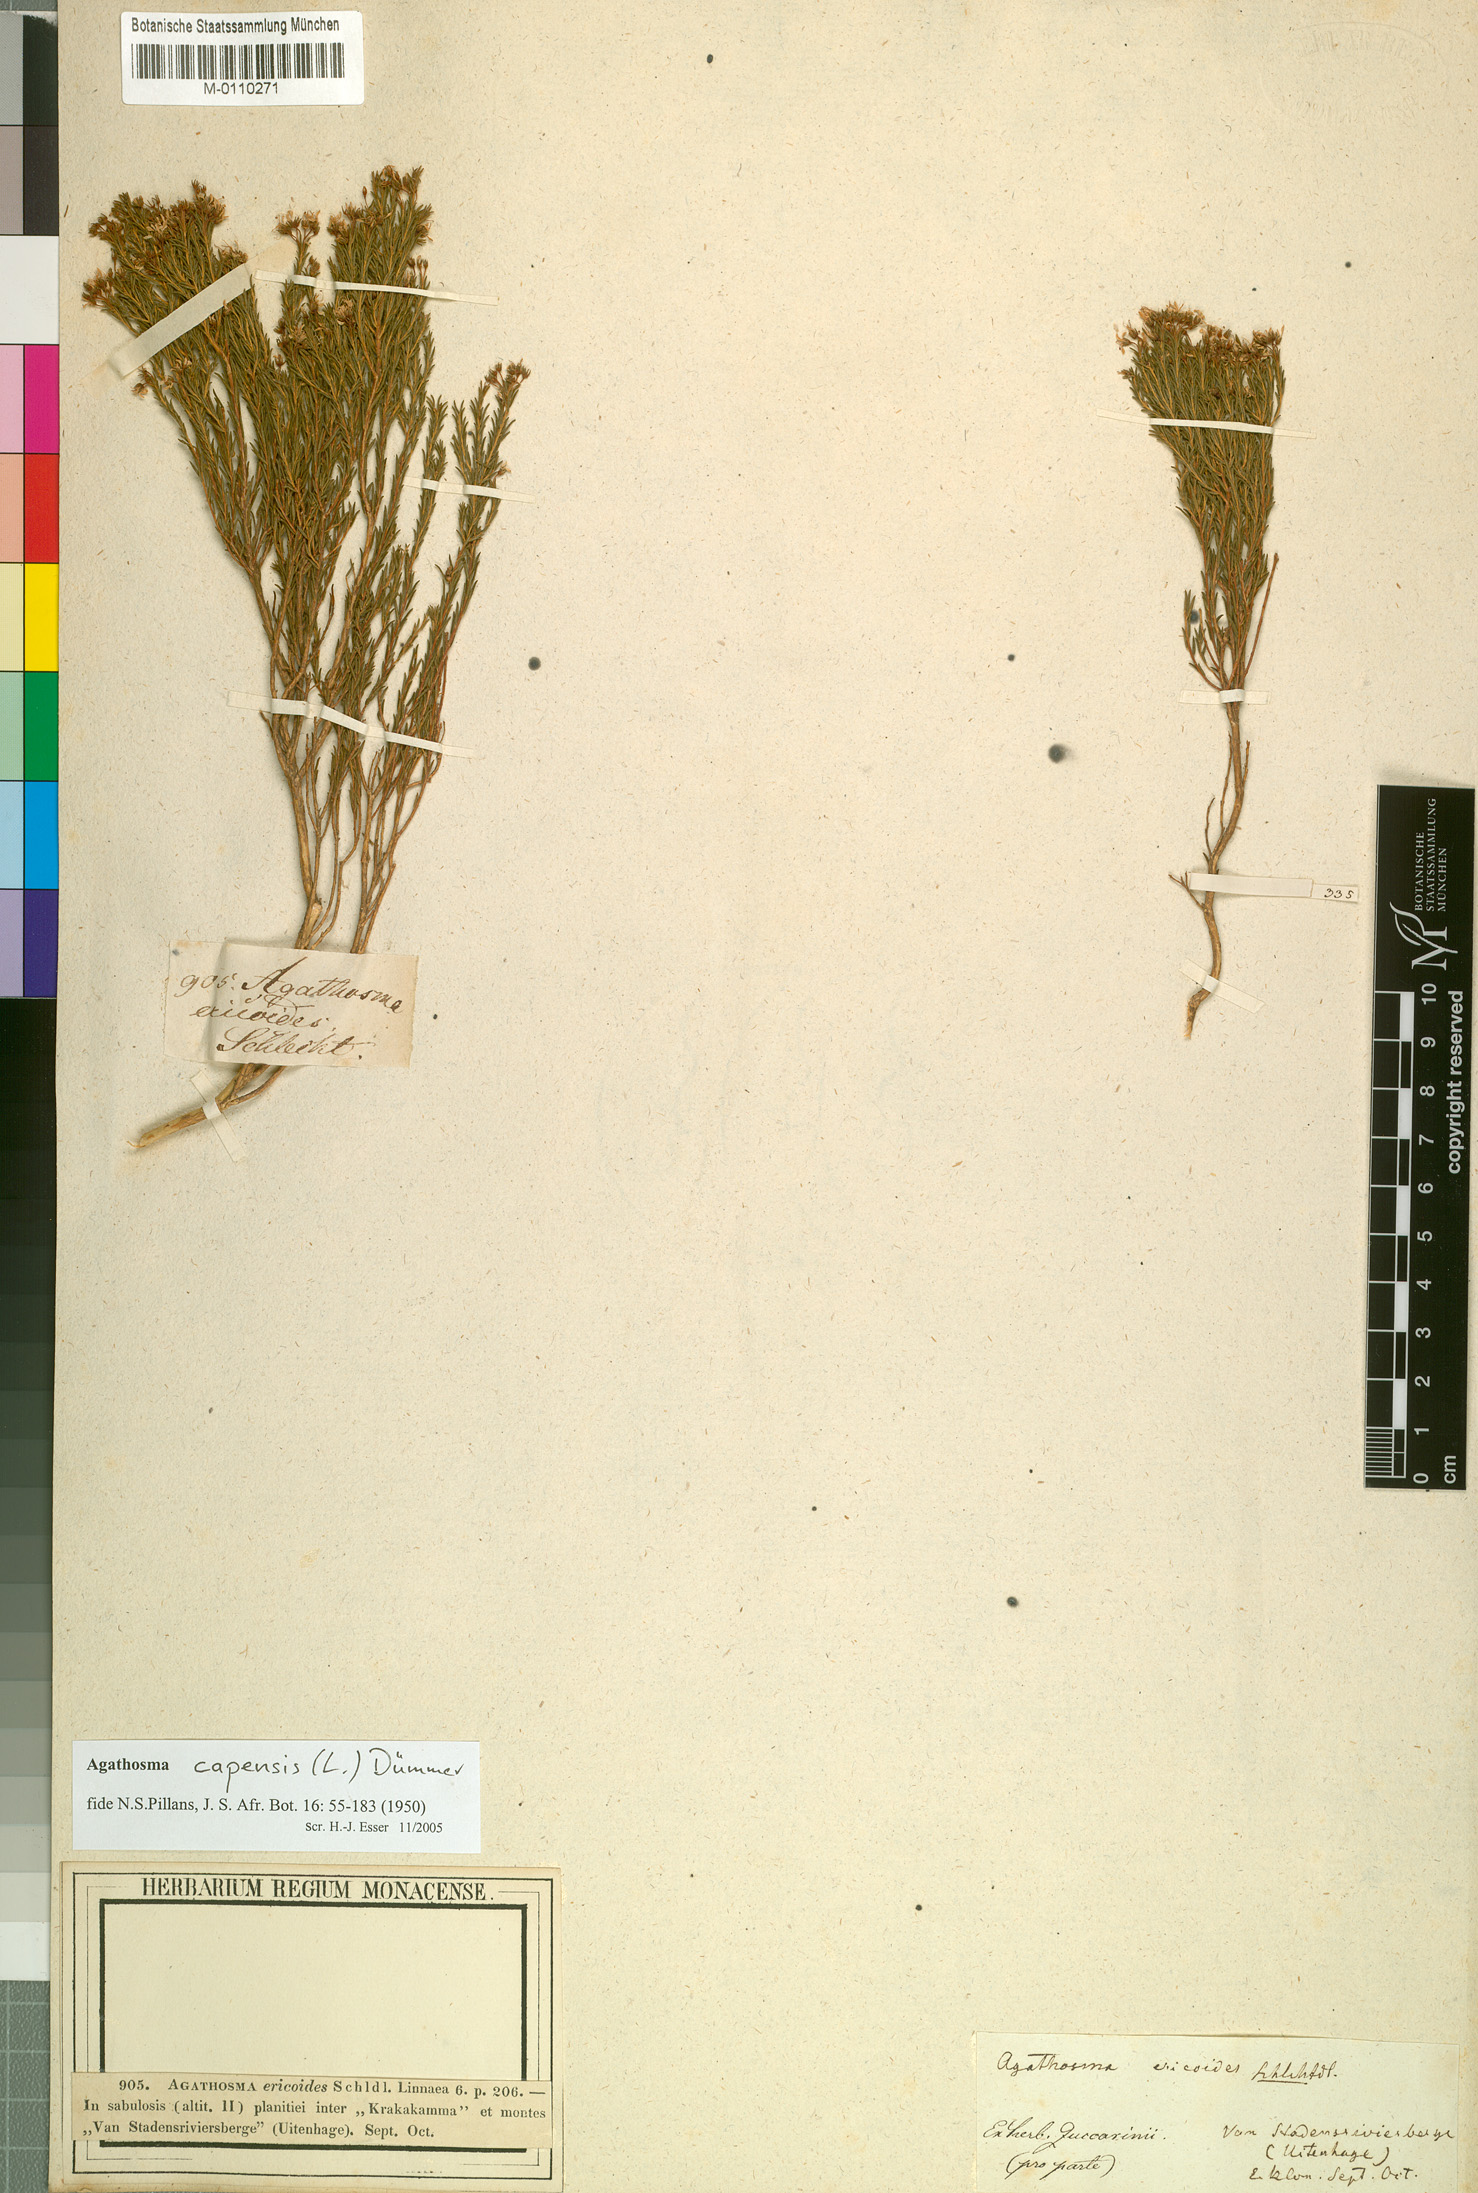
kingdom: Plantae
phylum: Tracheophyta
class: Magnoliopsida
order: Sapindales
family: Rutaceae
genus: Agathosma
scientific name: Agathosma capensis
